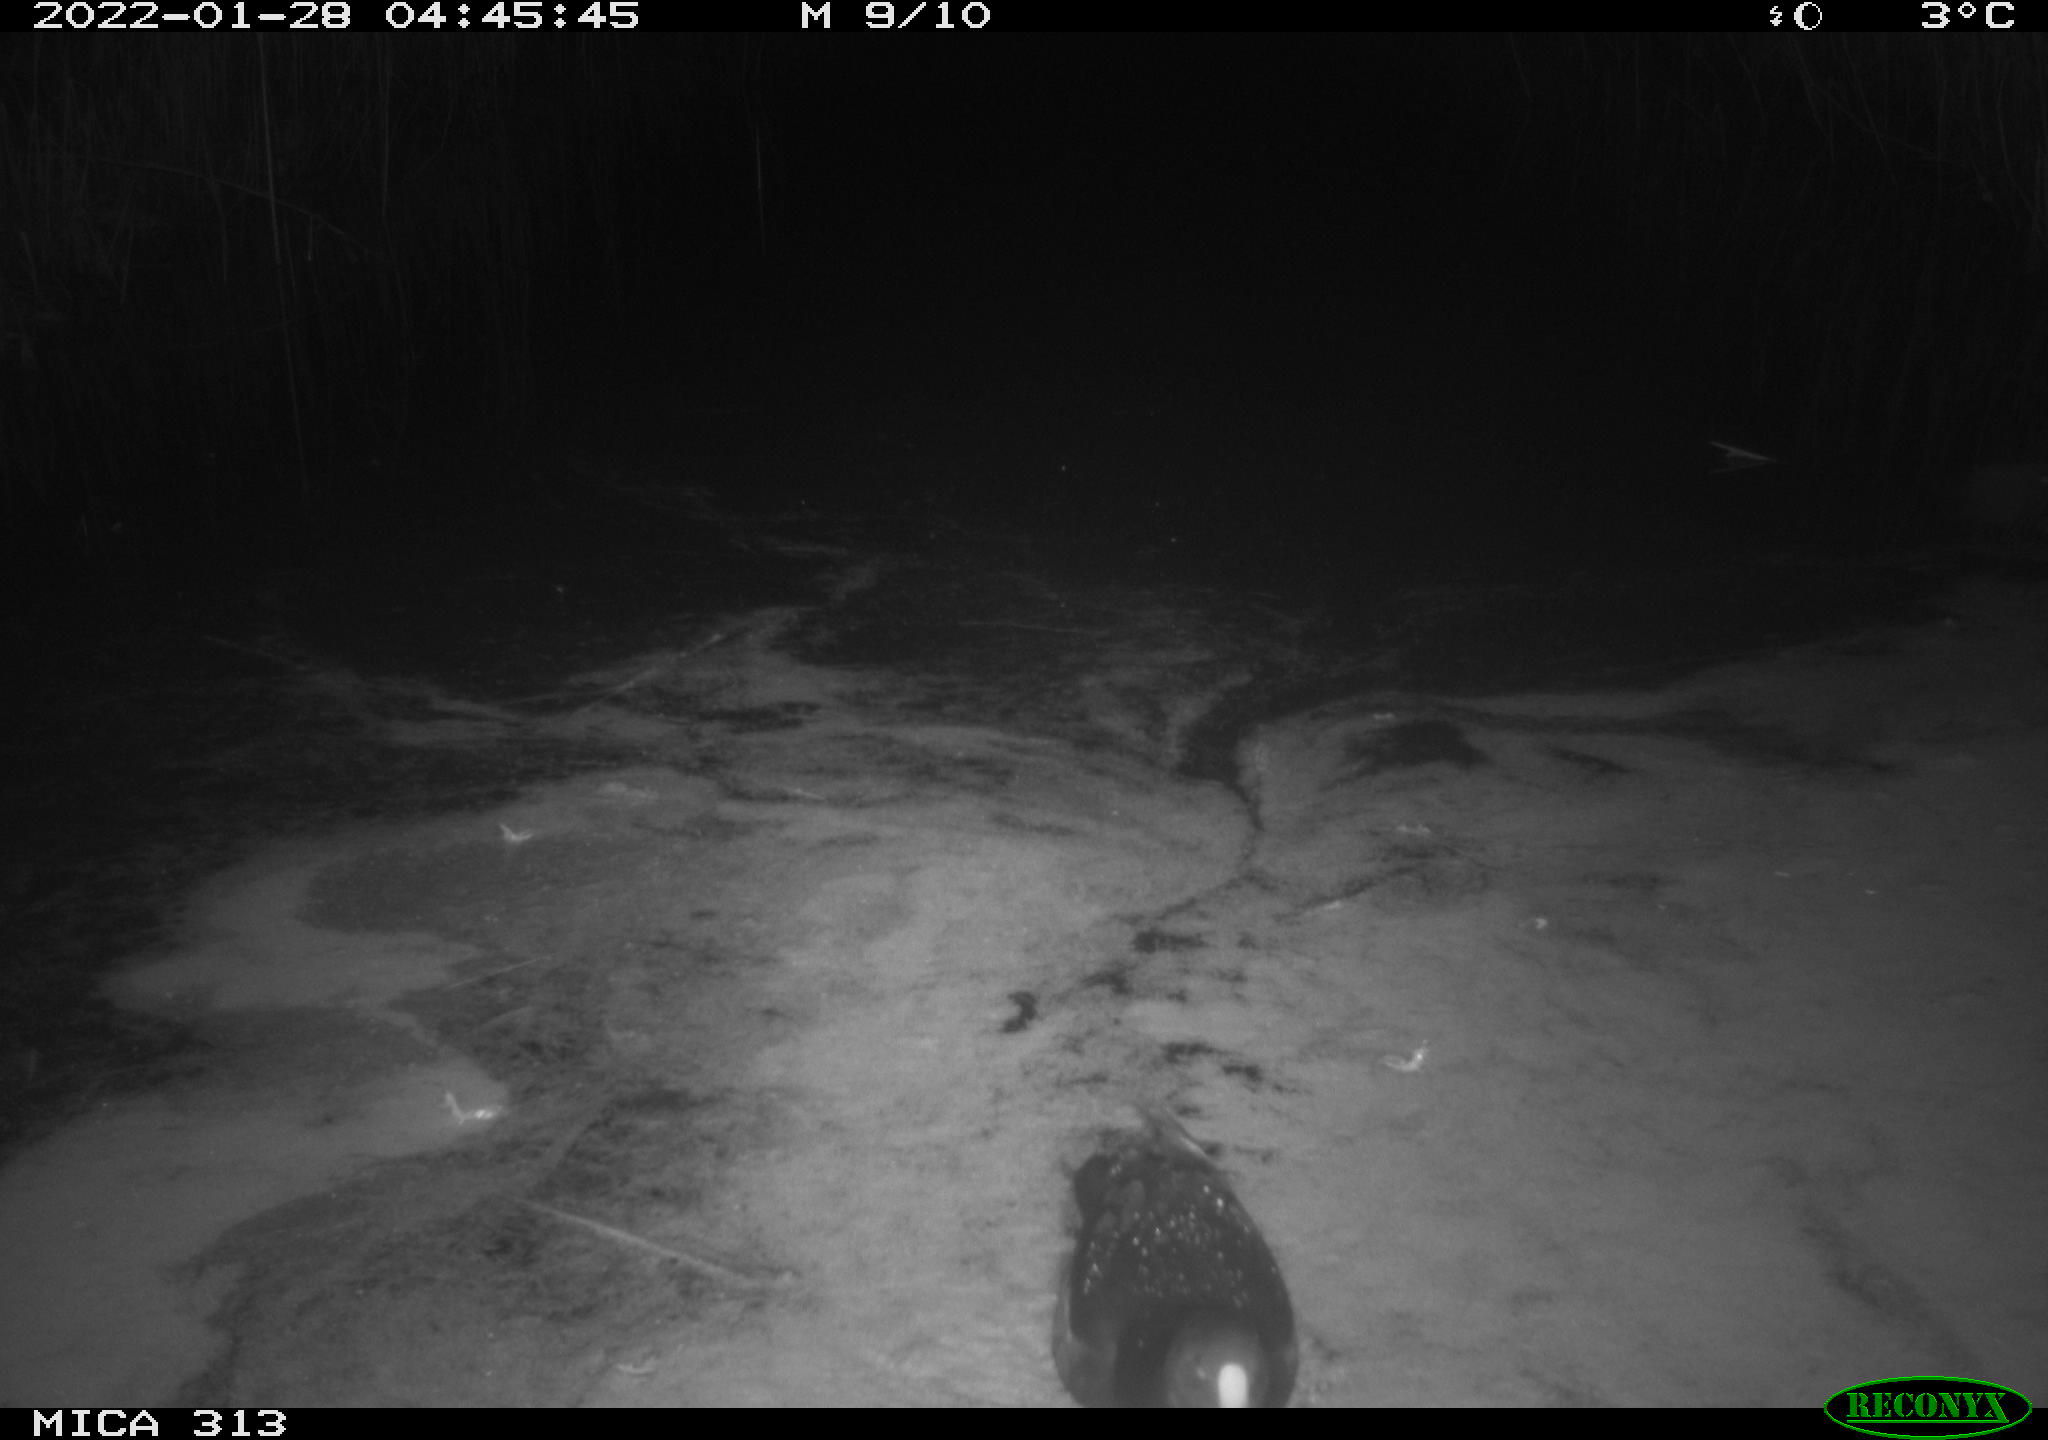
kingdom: Animalia
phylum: Chordata
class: Aves
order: Gruiformes
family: Rallidae
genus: Fulica
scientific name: Fulica atra
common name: Eurasian coot
